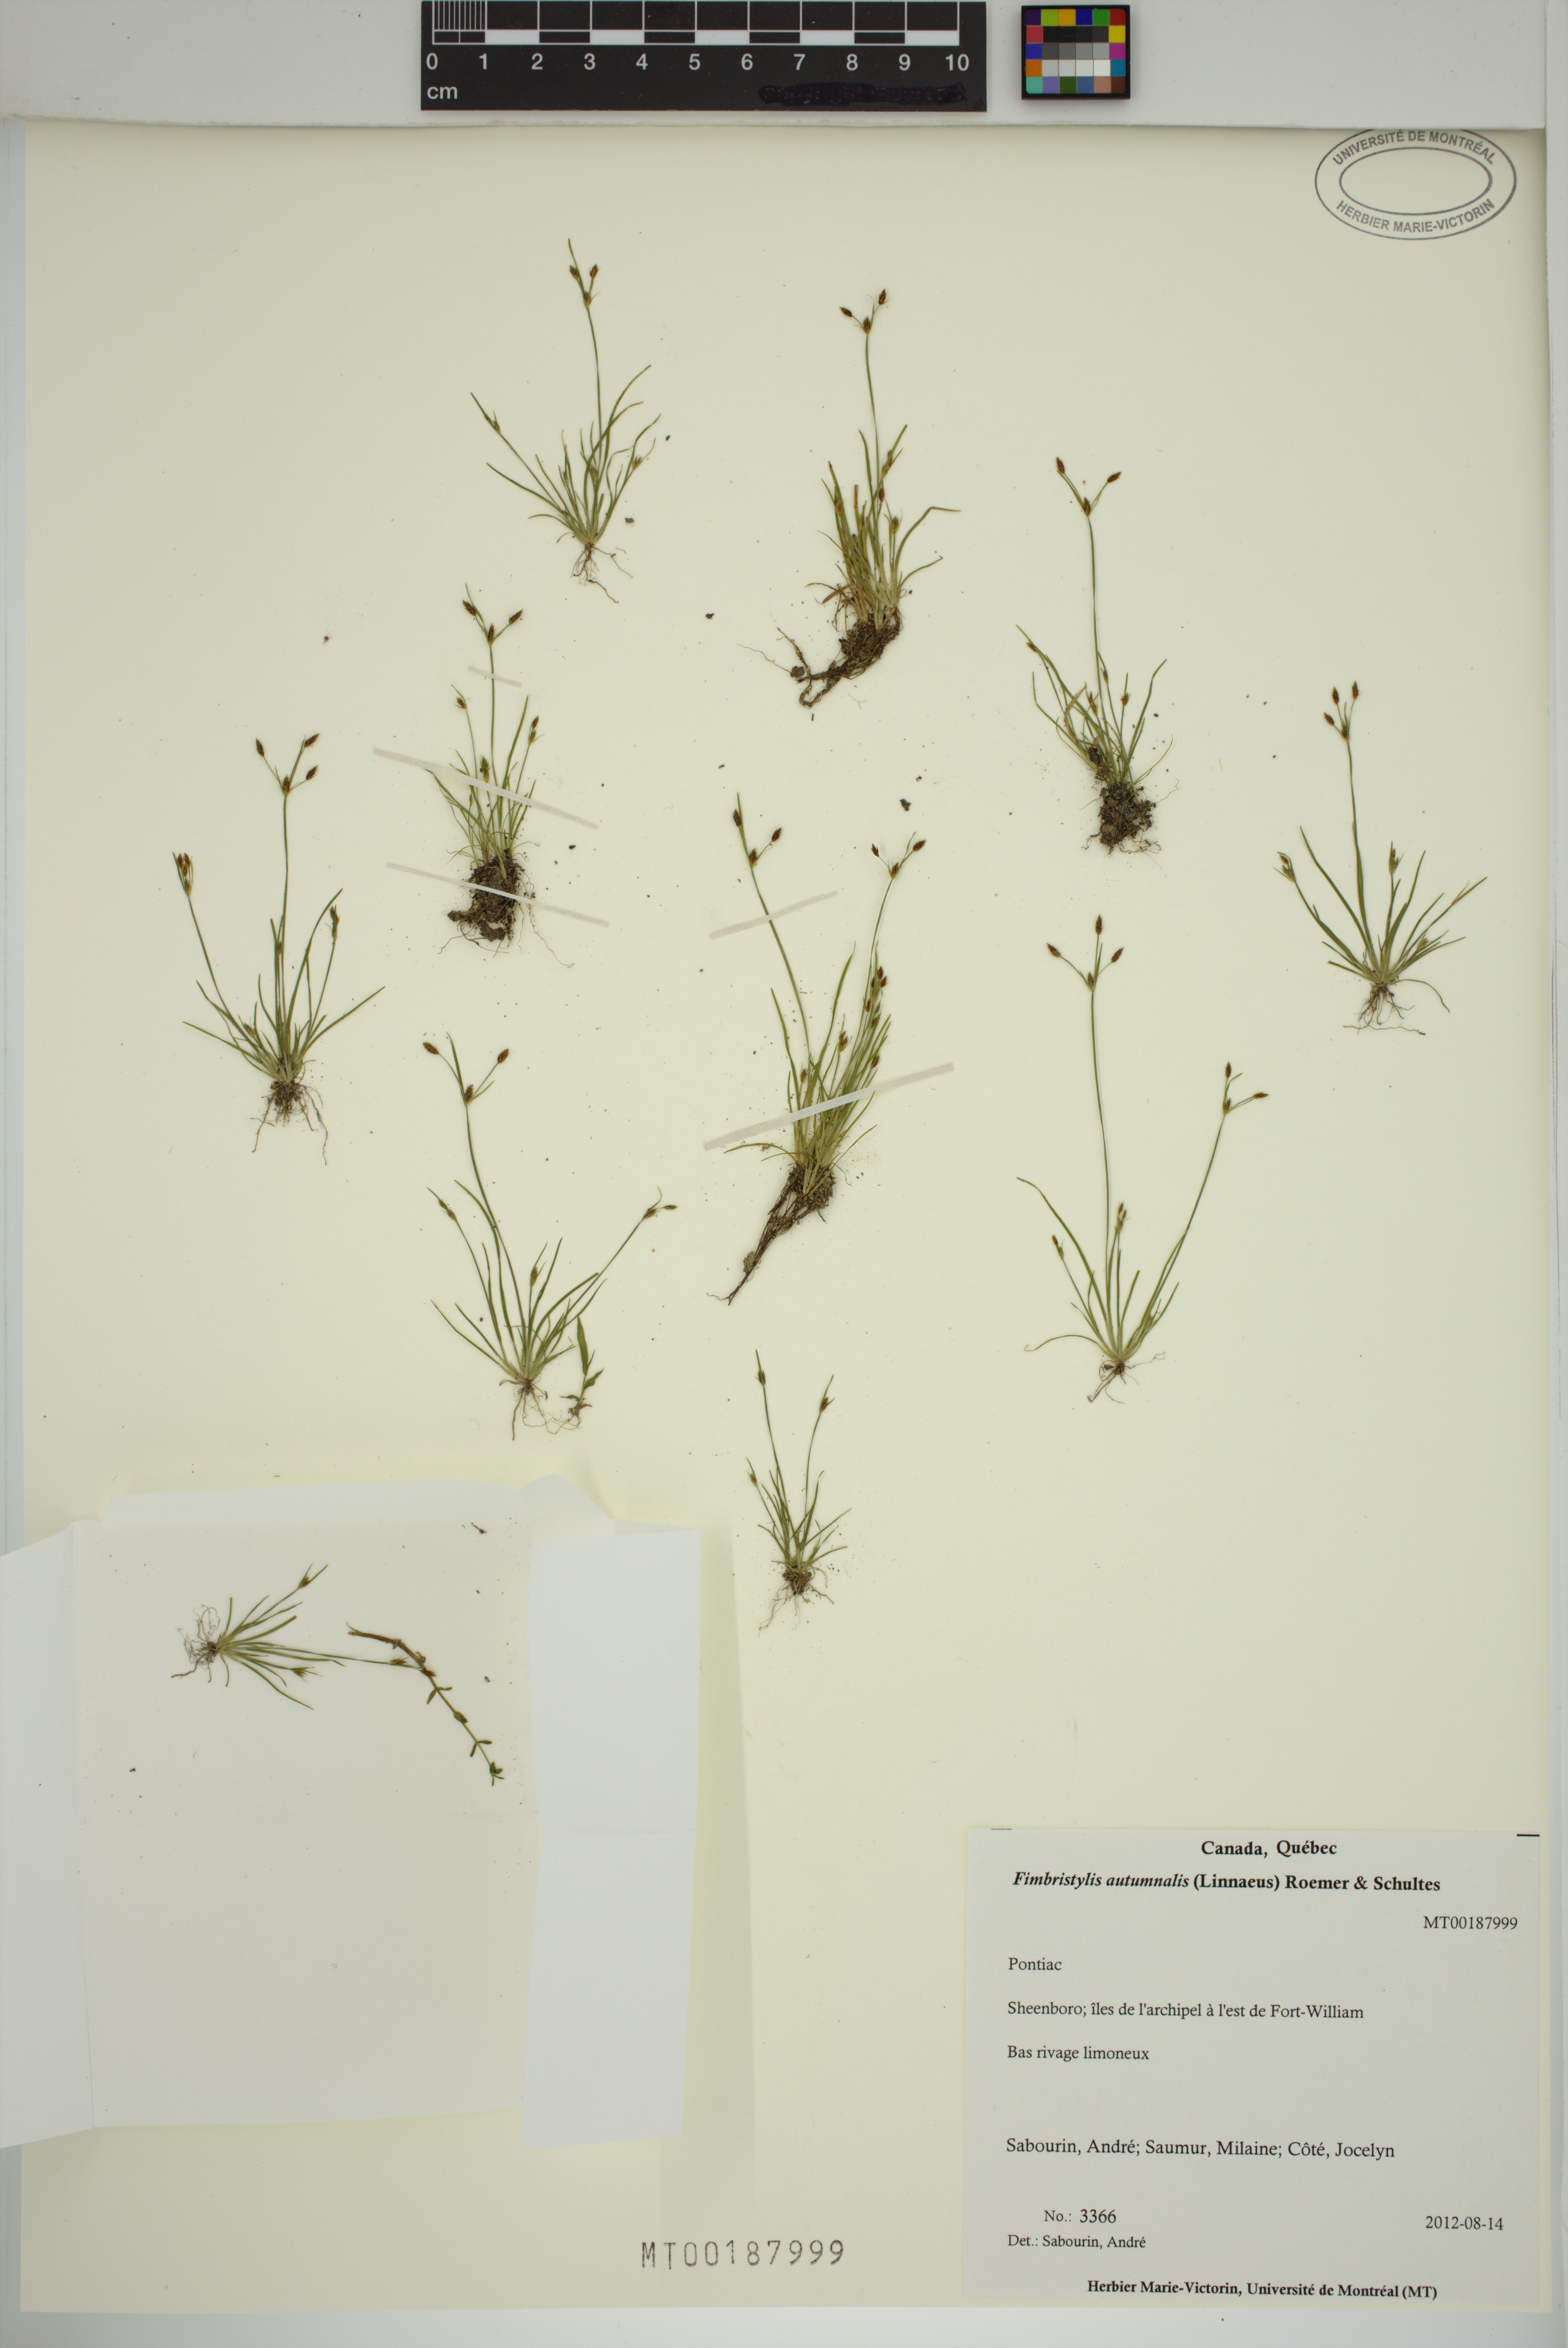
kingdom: Plantae
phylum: Tracheophyta
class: Liliopsida
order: Poales
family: Cyperaceae
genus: Fimbristylis
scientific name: Fimbristylis autumnalis
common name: Slender fimbristylis
